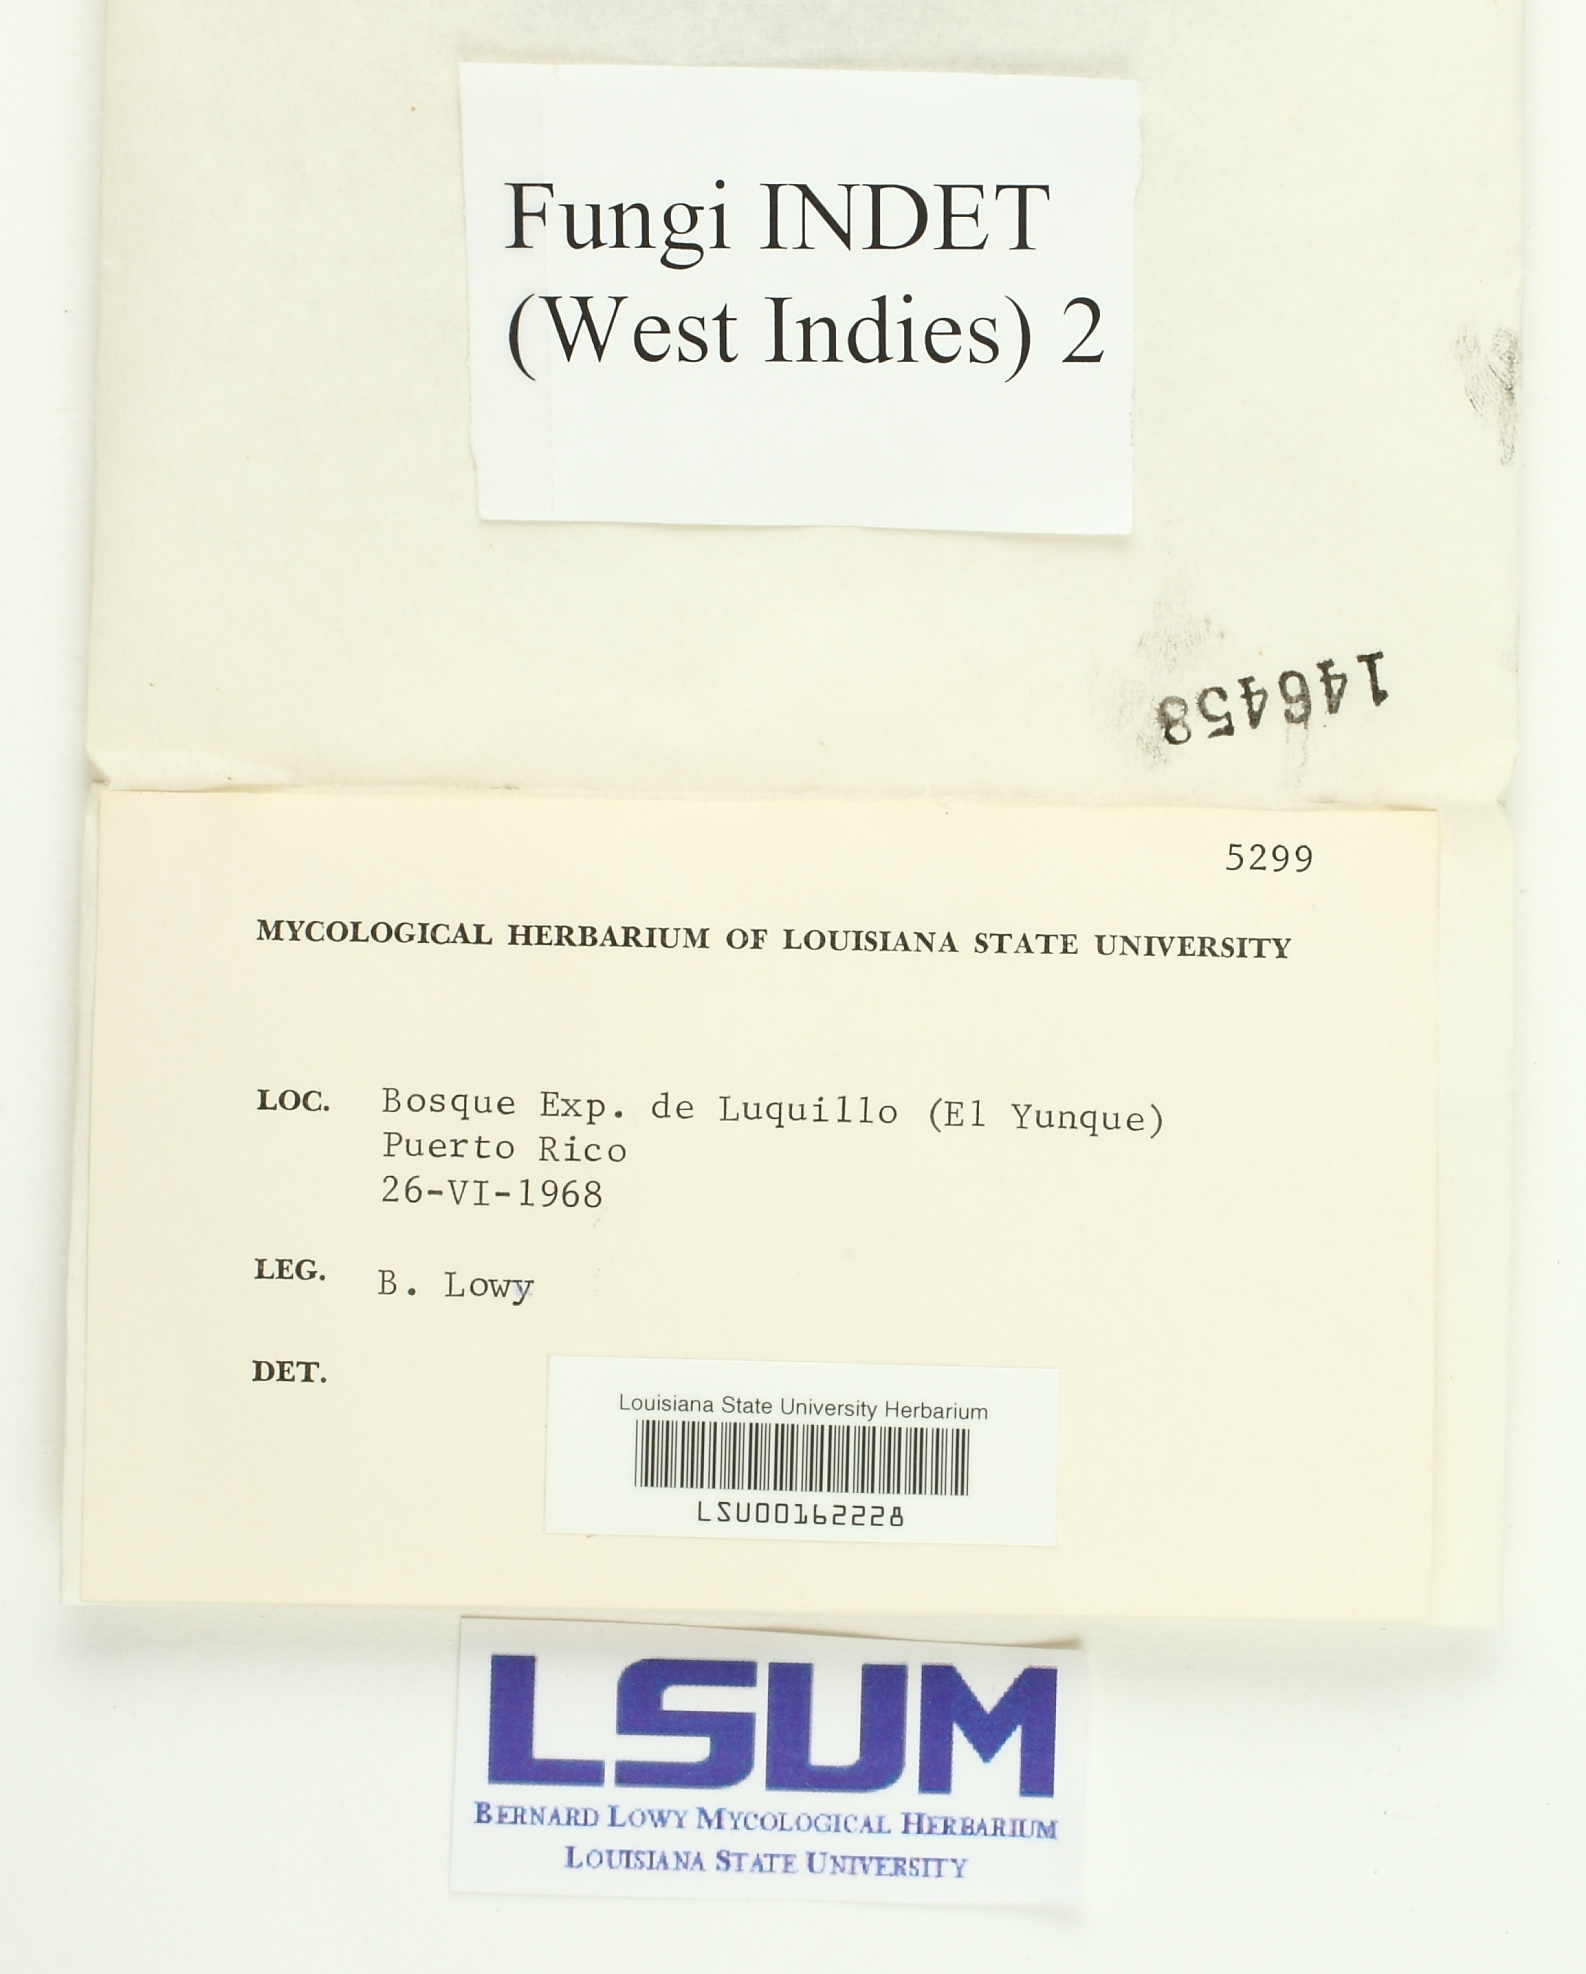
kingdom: Fungi
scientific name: Fungi
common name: Fungi
